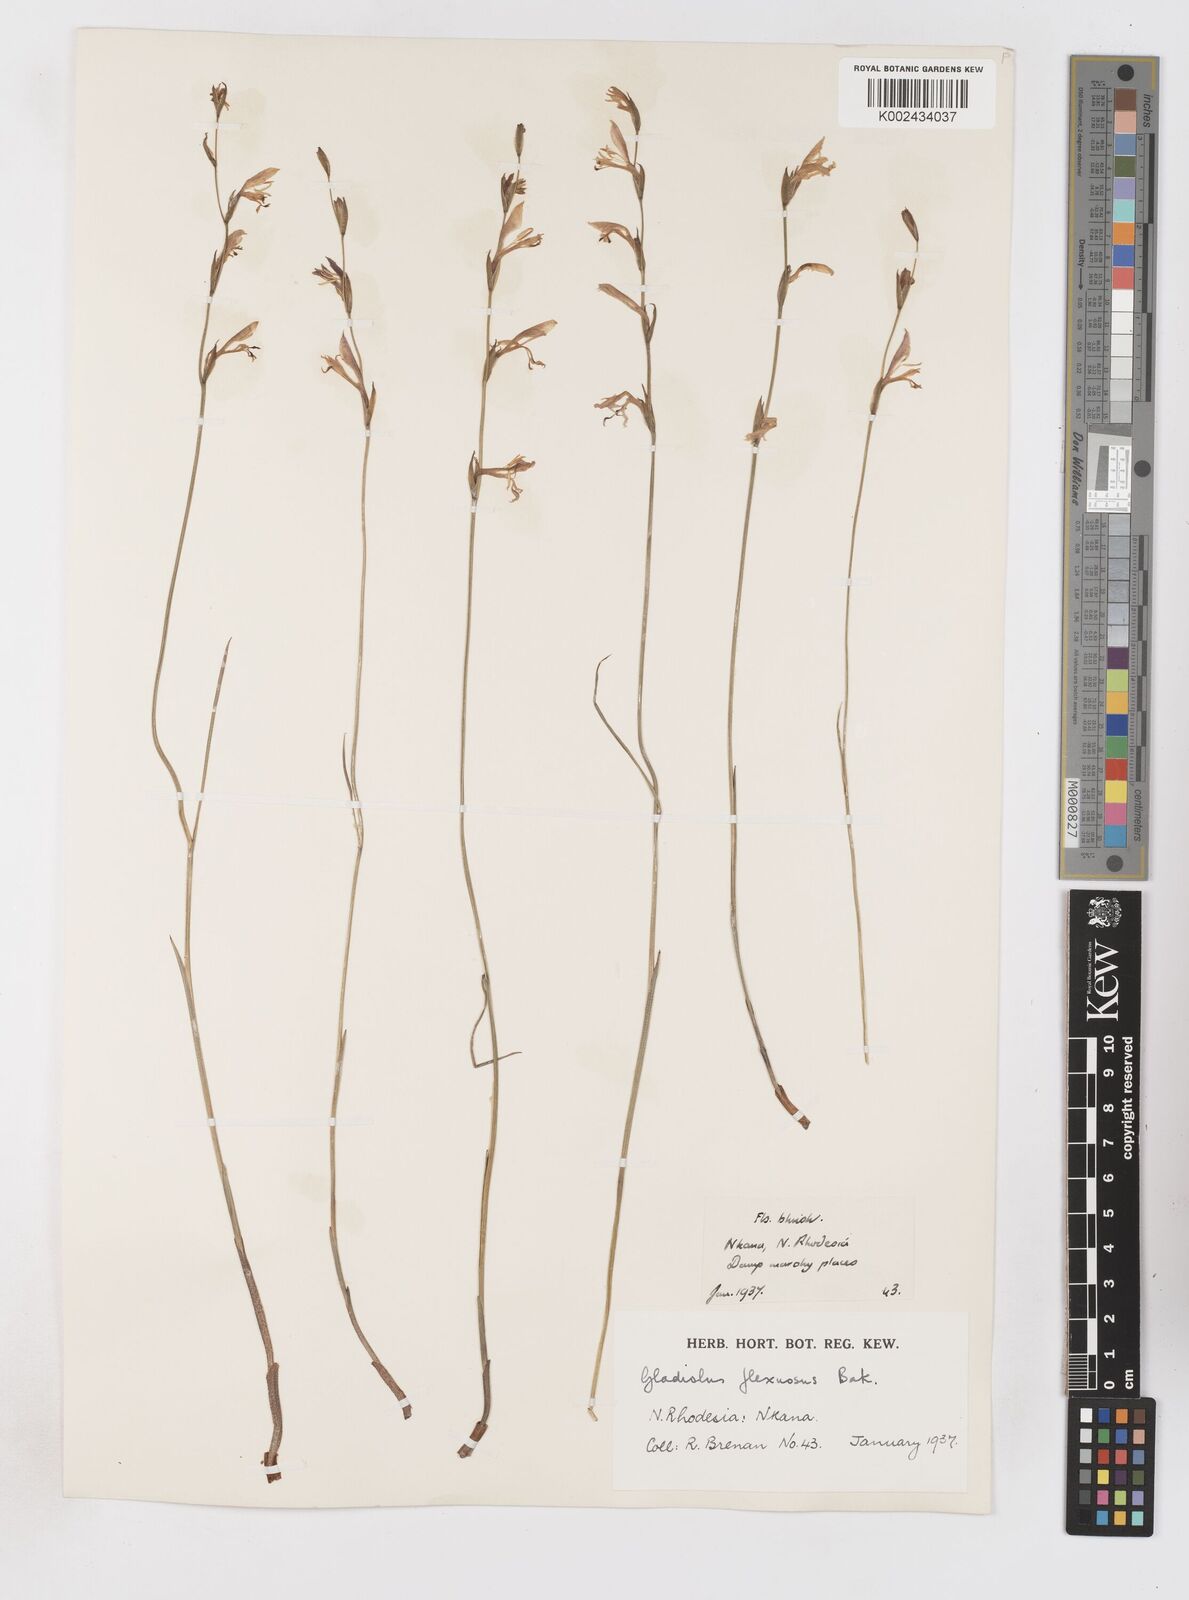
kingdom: Plantae
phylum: Tracheophyta
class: Liliopsida
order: Asparagales
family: Iridaceae
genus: Gladiolus
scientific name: Gladiolus atropurpureus
